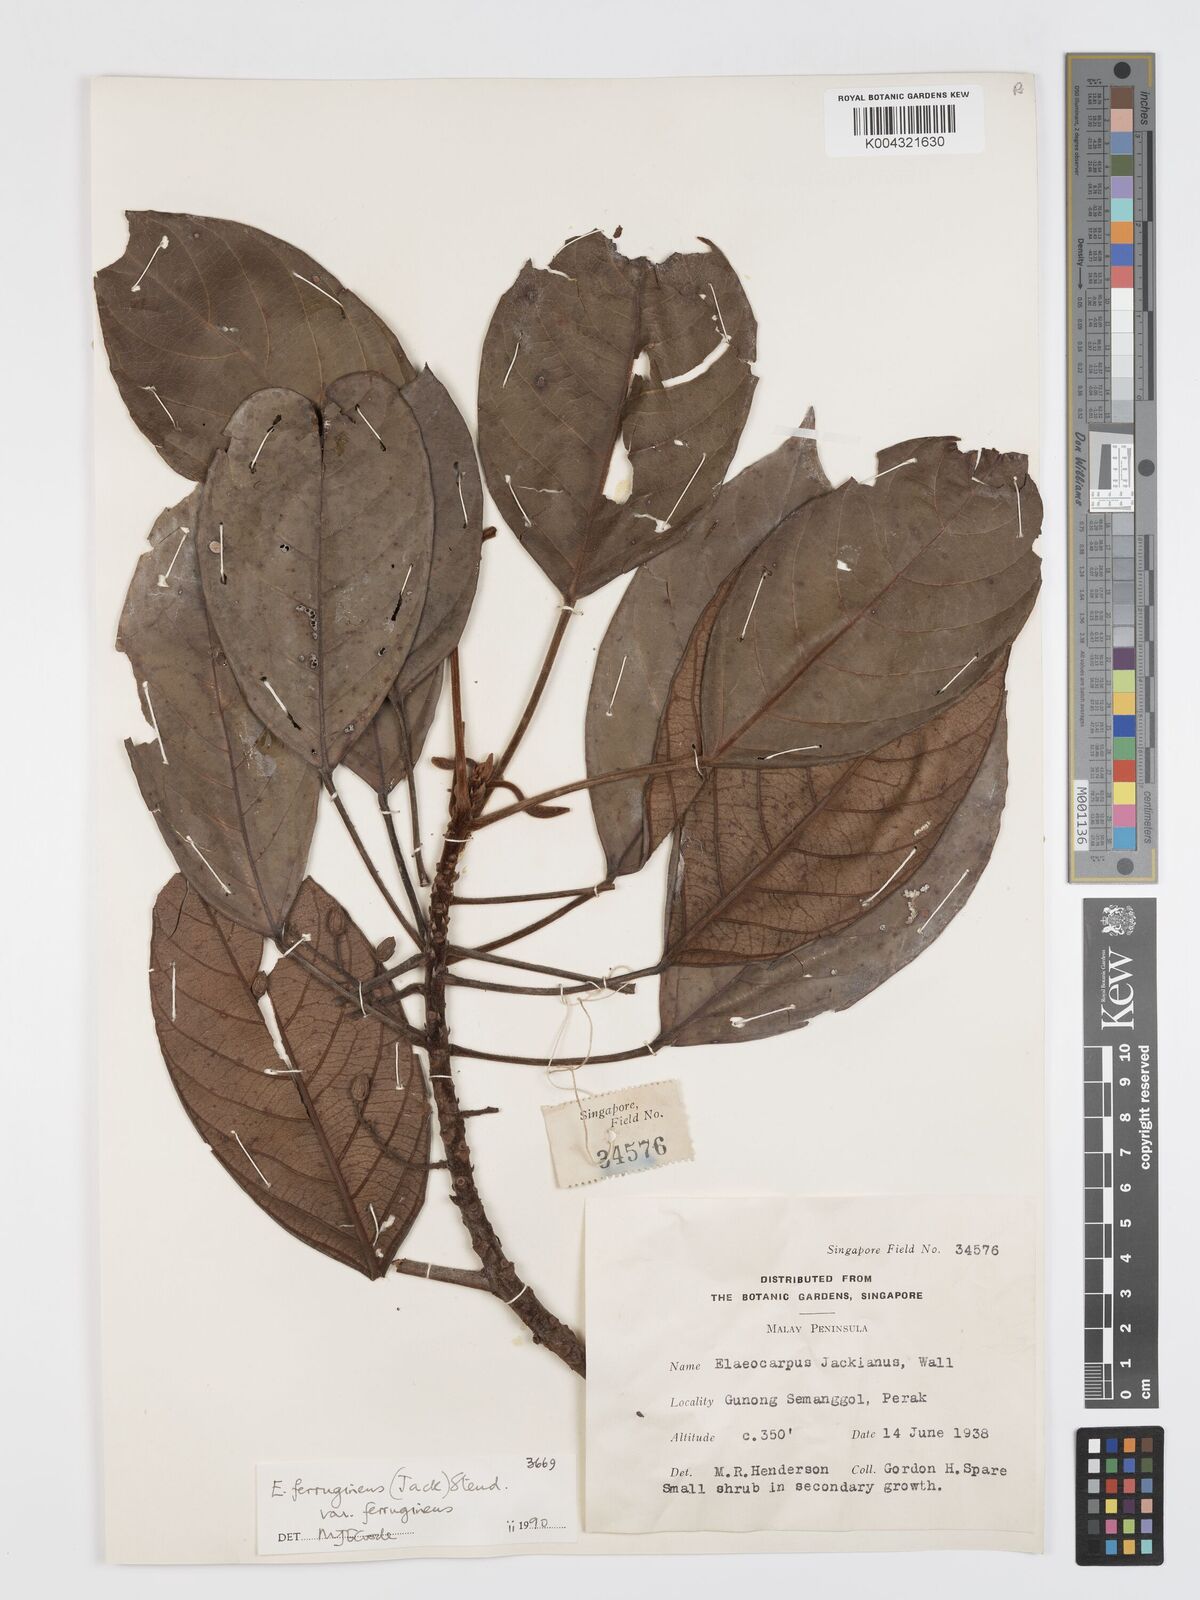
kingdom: Plantae
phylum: Tracheophyta
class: Magnoliopsida
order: Oxalidales
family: Elaeocarpaceae
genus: Elaeocarpus
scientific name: Elaeocarpus ferrugineus
